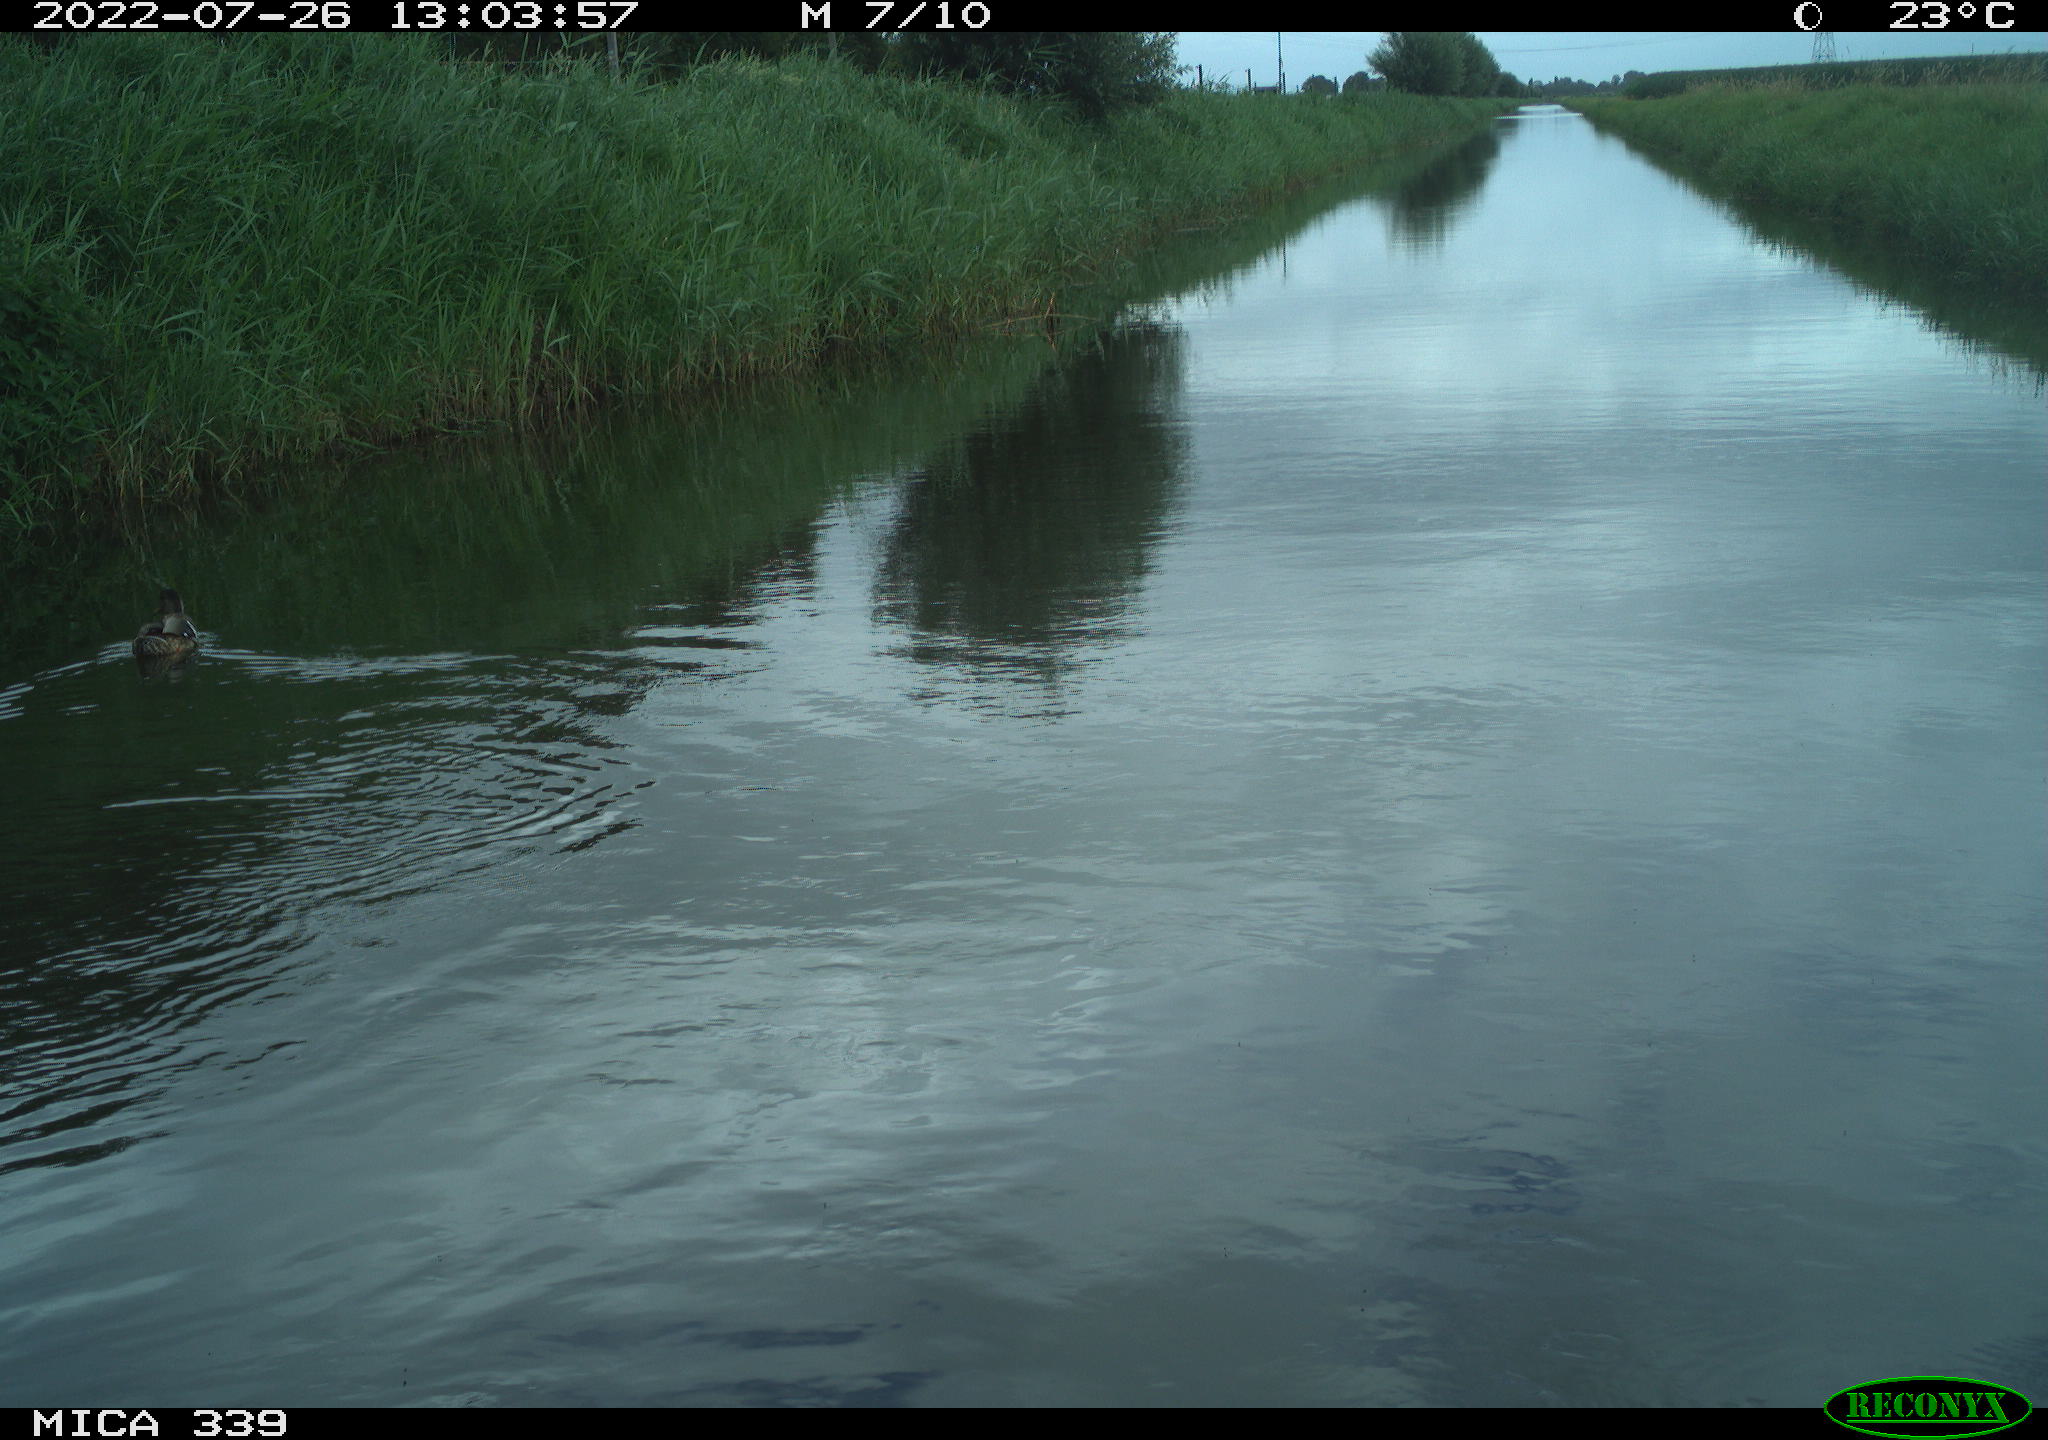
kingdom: Animalia
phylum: Chordata
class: Aves
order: Anseriformes
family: Anatidae
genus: Anas
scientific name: Anas platyrhynchos
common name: Mallard
